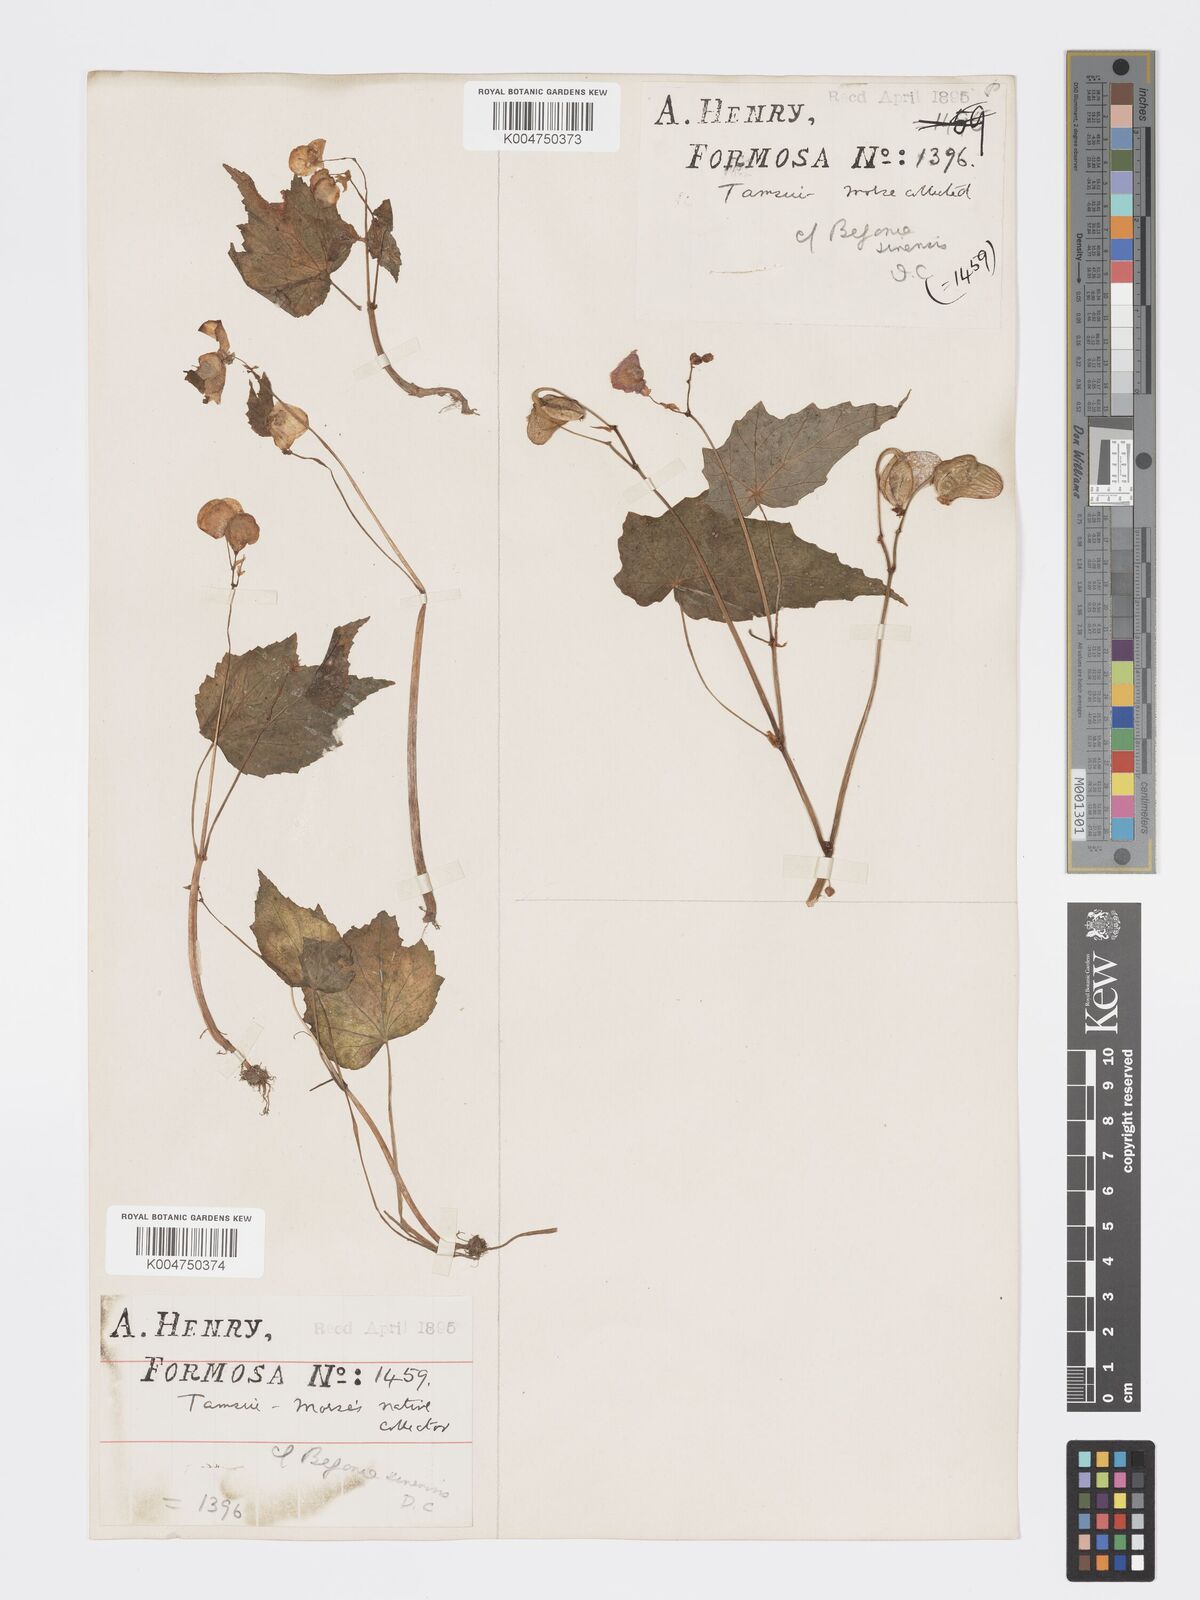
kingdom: Plantae
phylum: Tracheophyta
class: Magnoliopsida
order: Cucurbitales
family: Begoniaceae
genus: Begonia
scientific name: Begonia palmata
